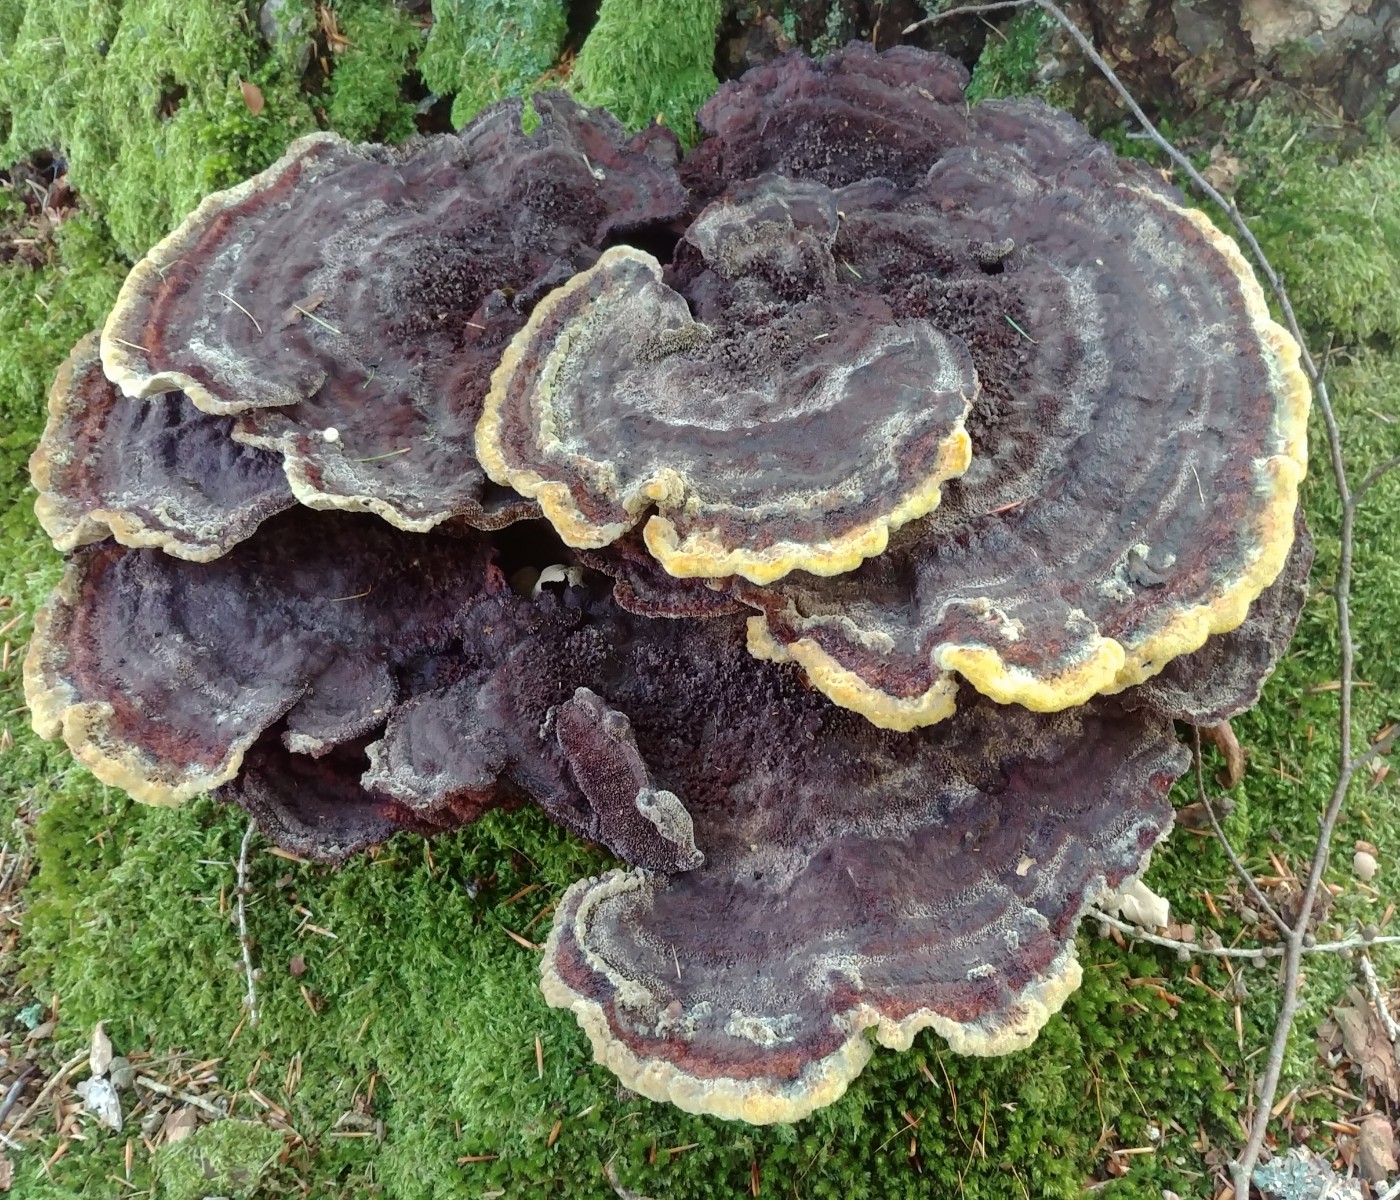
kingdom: Fungi
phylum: Basidiomycota
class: Agaricomycetes
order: Polyporales
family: Laetiporaceae
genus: Phaeolus
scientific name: Phaeolus schweinitzii
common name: brunporesvamp
